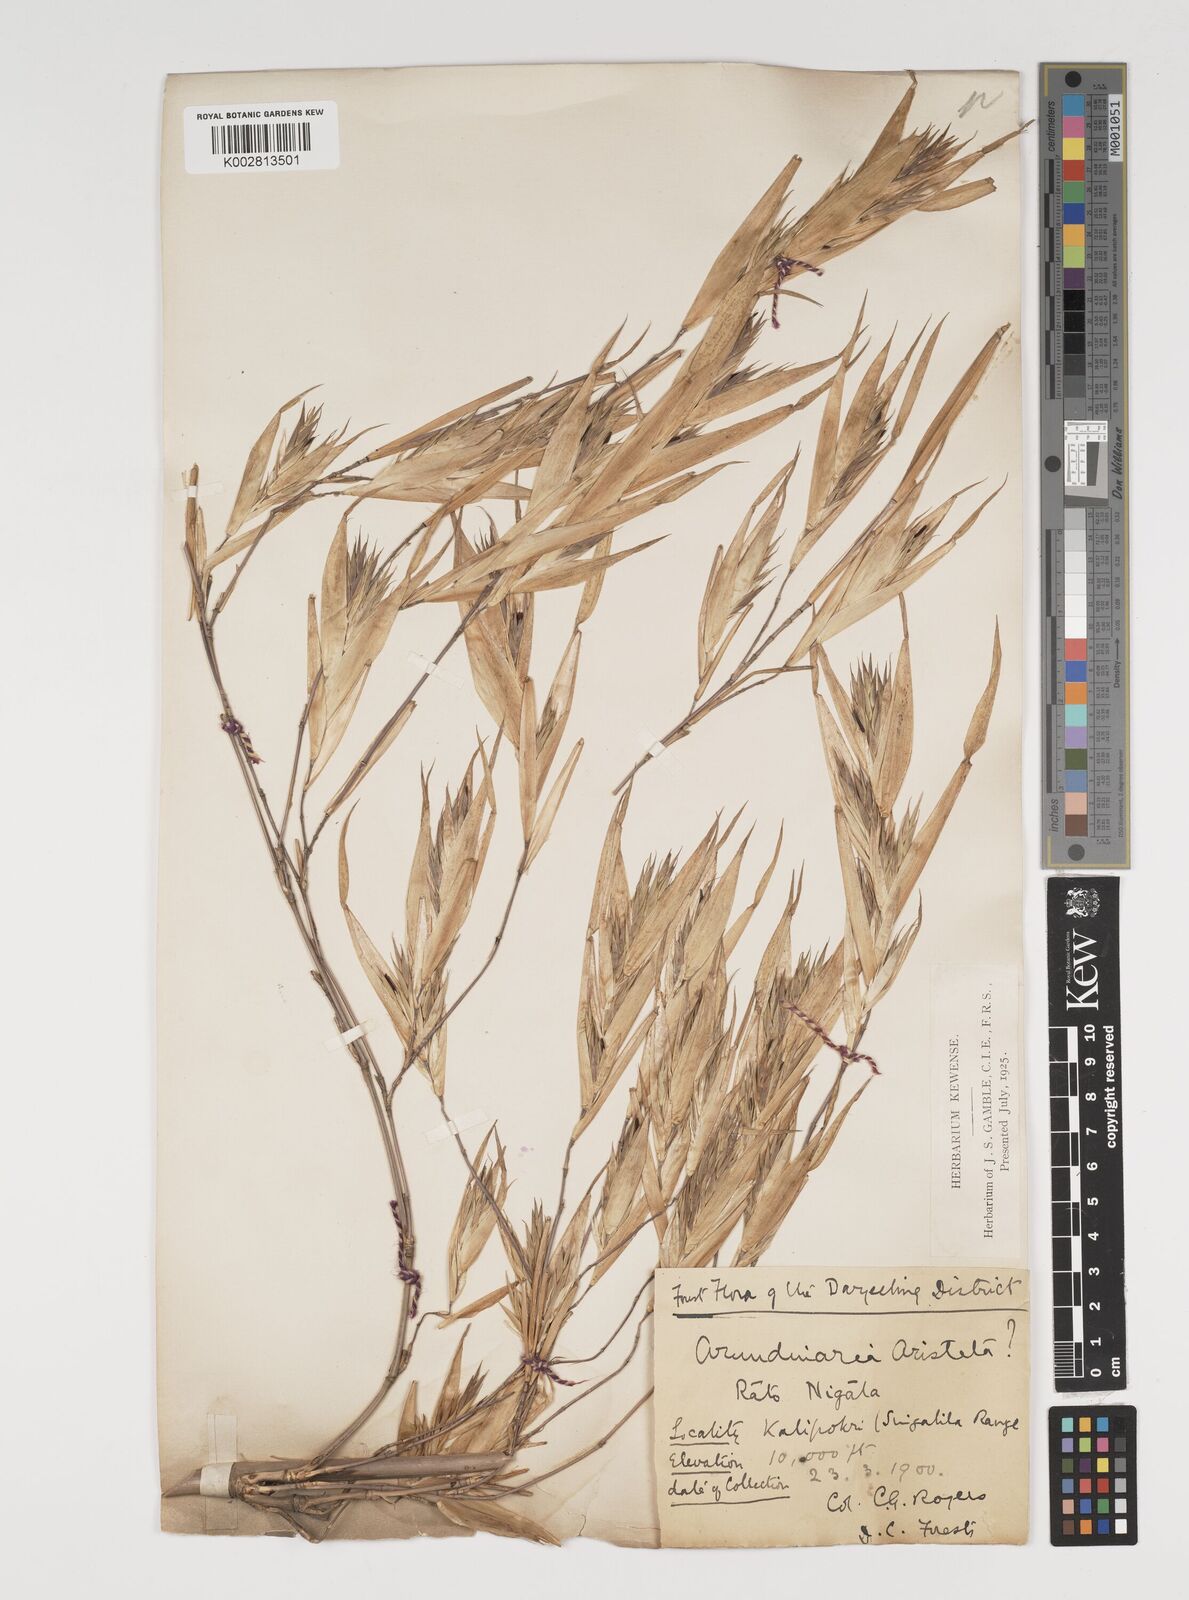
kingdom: Plantae
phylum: Tracheophyta
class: Liliopsida
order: Poales
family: Poaceae
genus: Thamnocalamus
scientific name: Thamnocalamus spathiflorus
